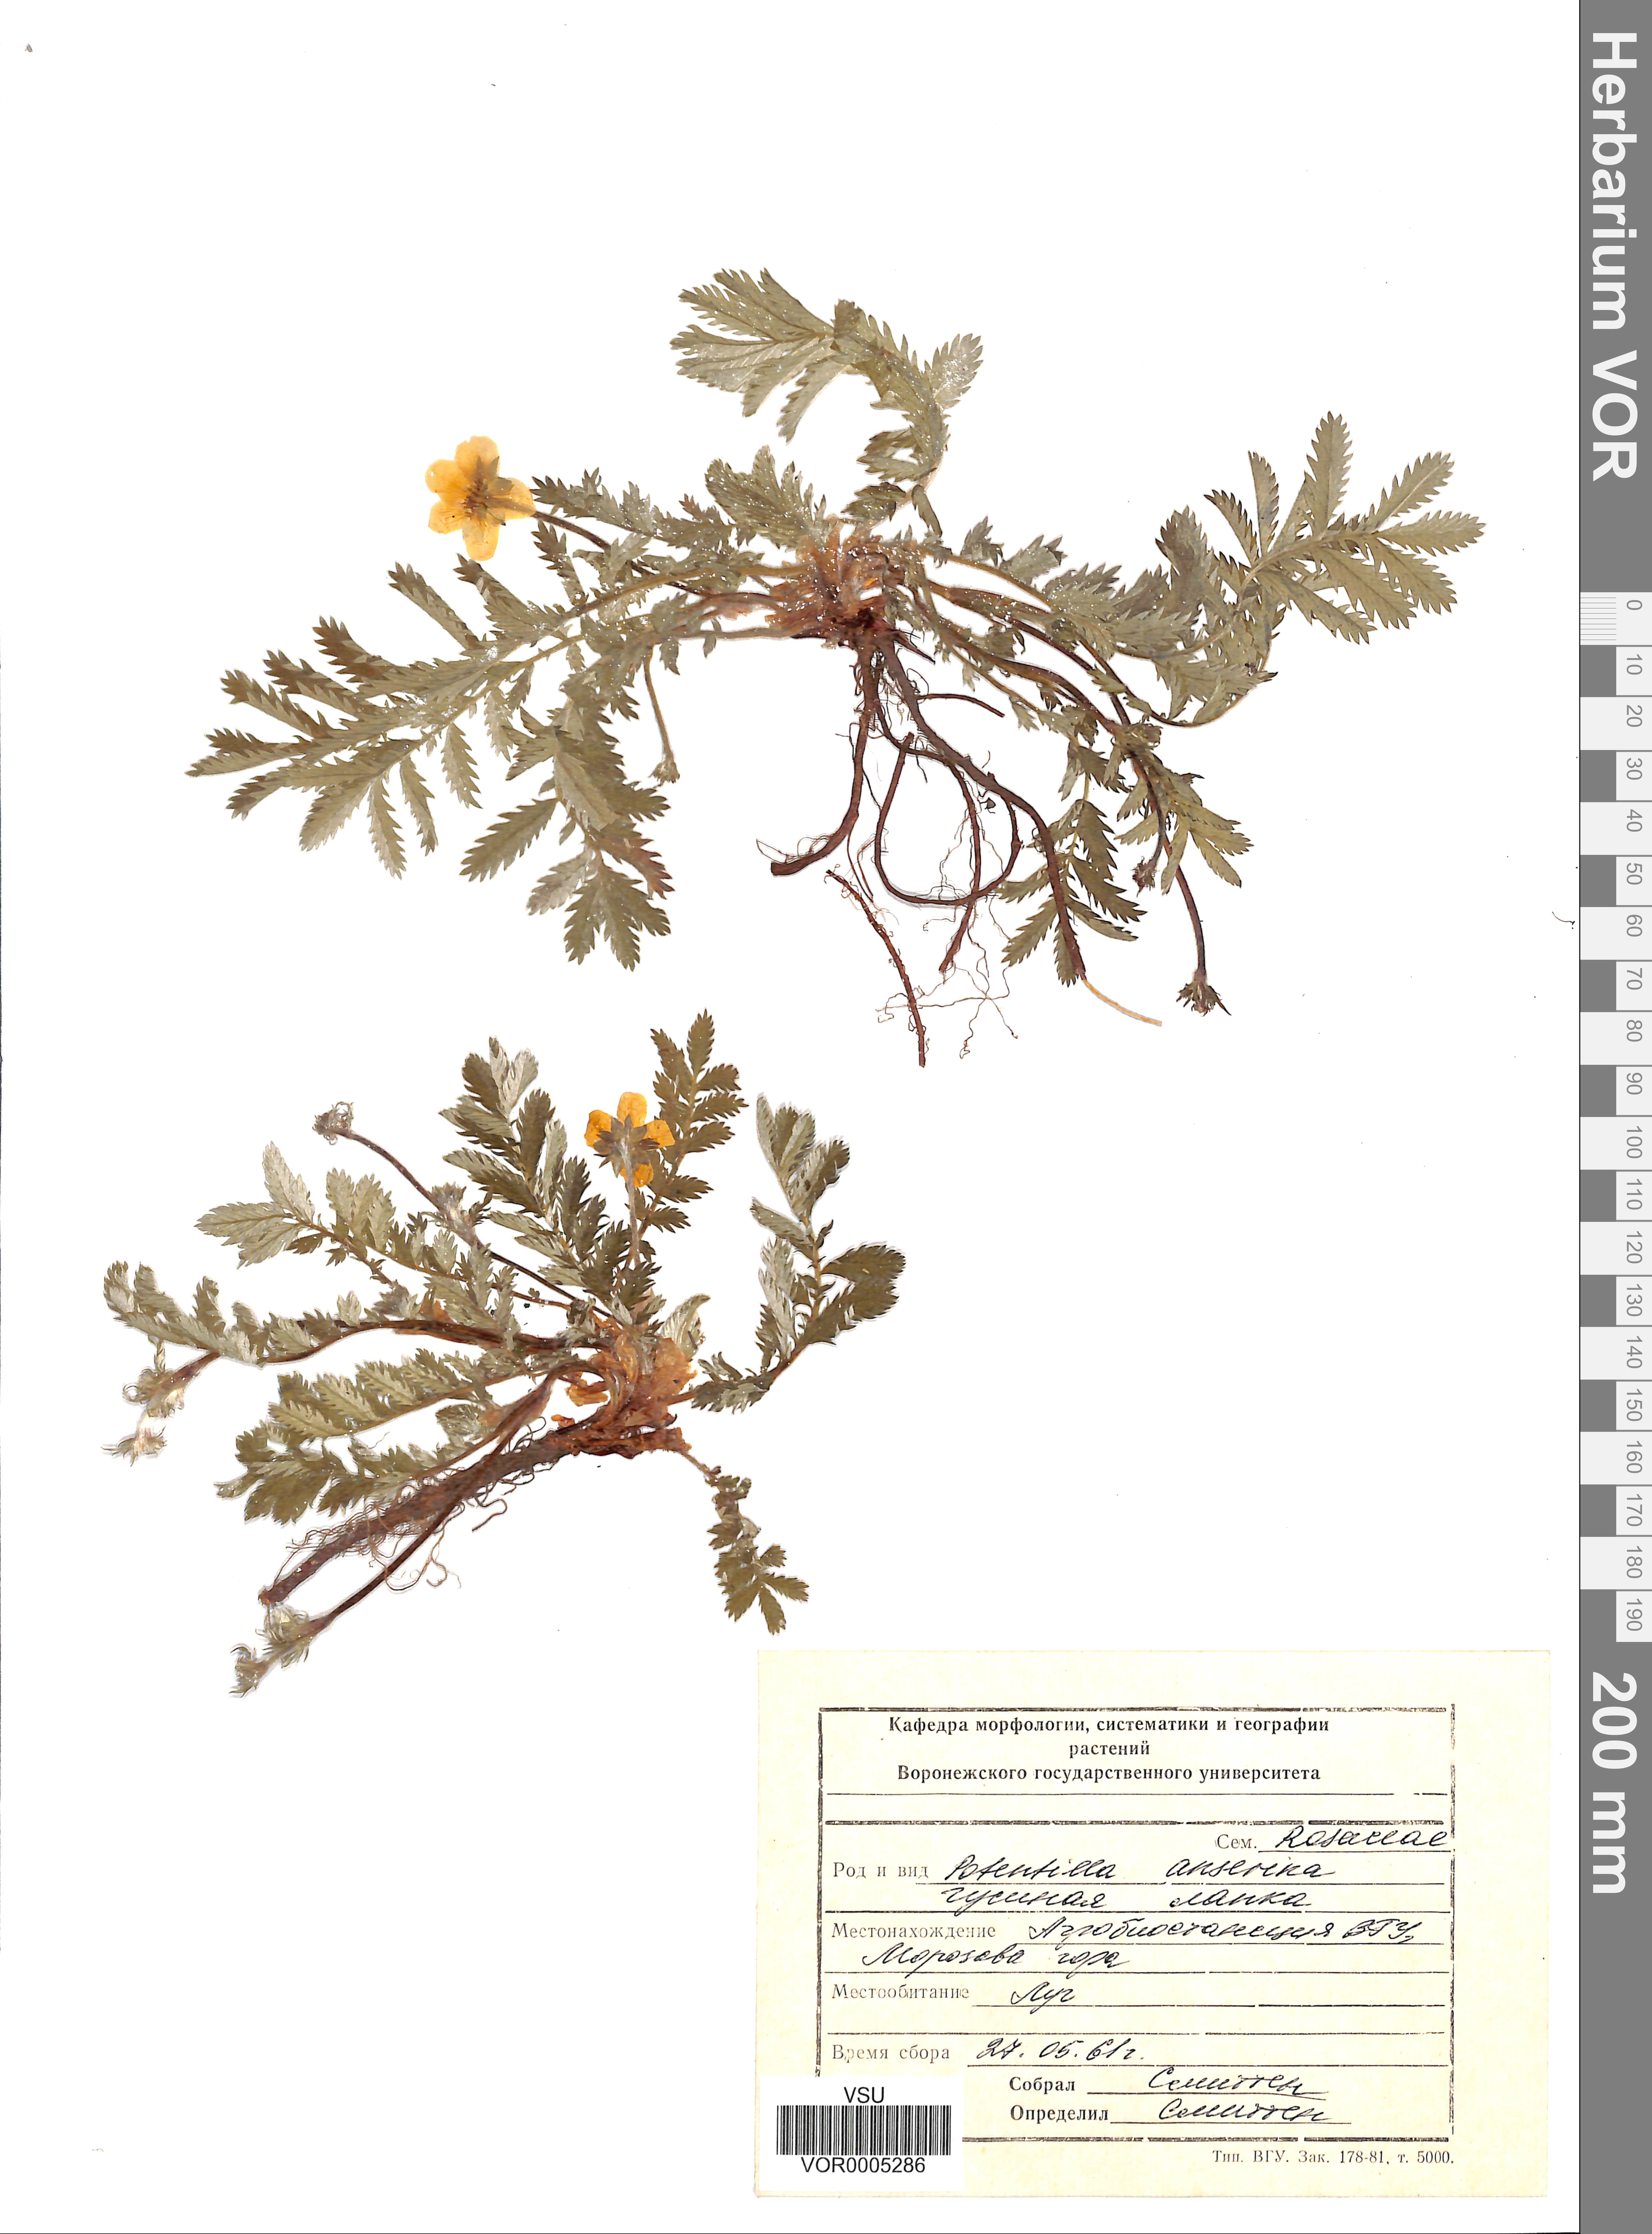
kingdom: Plantae
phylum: Tracheophyta
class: Magnoliopsida
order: Rosales
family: Rosaceae
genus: Argentina
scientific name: Argentina anserina
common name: Common silverweed
